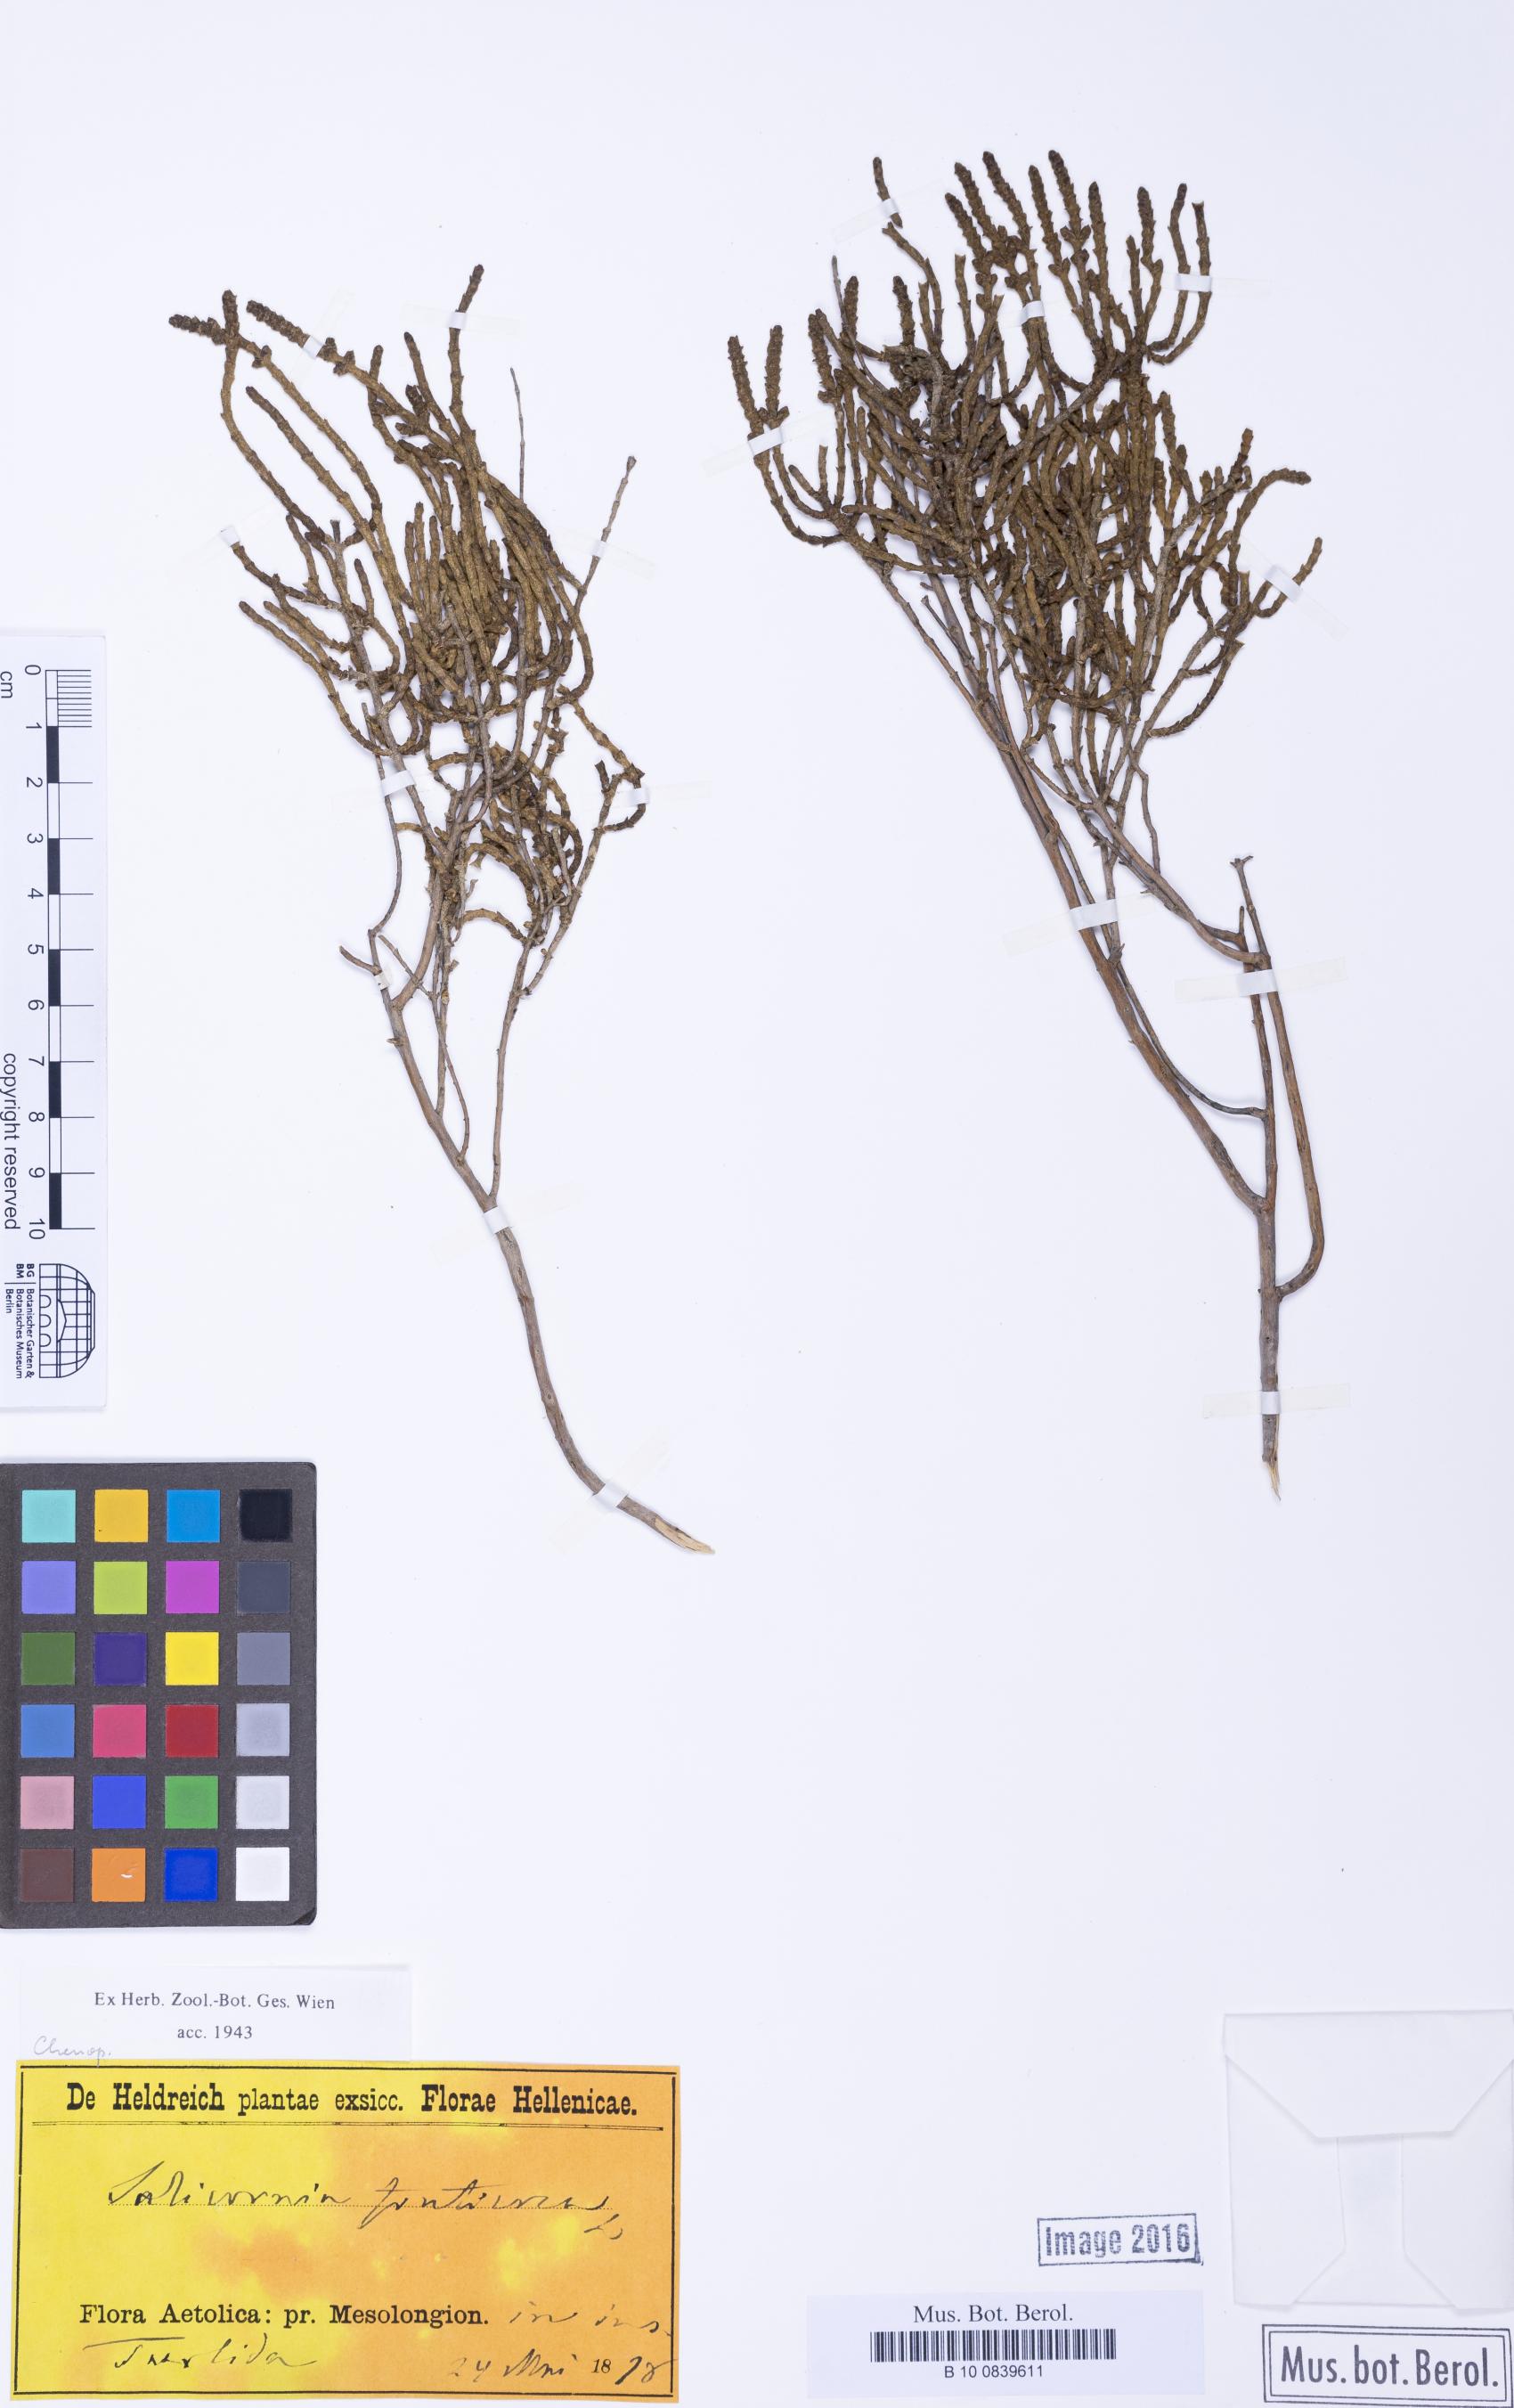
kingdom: Plantae
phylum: Tracheophyta
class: Magnoliopsida
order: Caryophyllales
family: Amaranthaceae
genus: Arthrocaulon
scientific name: Arthrocaulon macrostachyum
